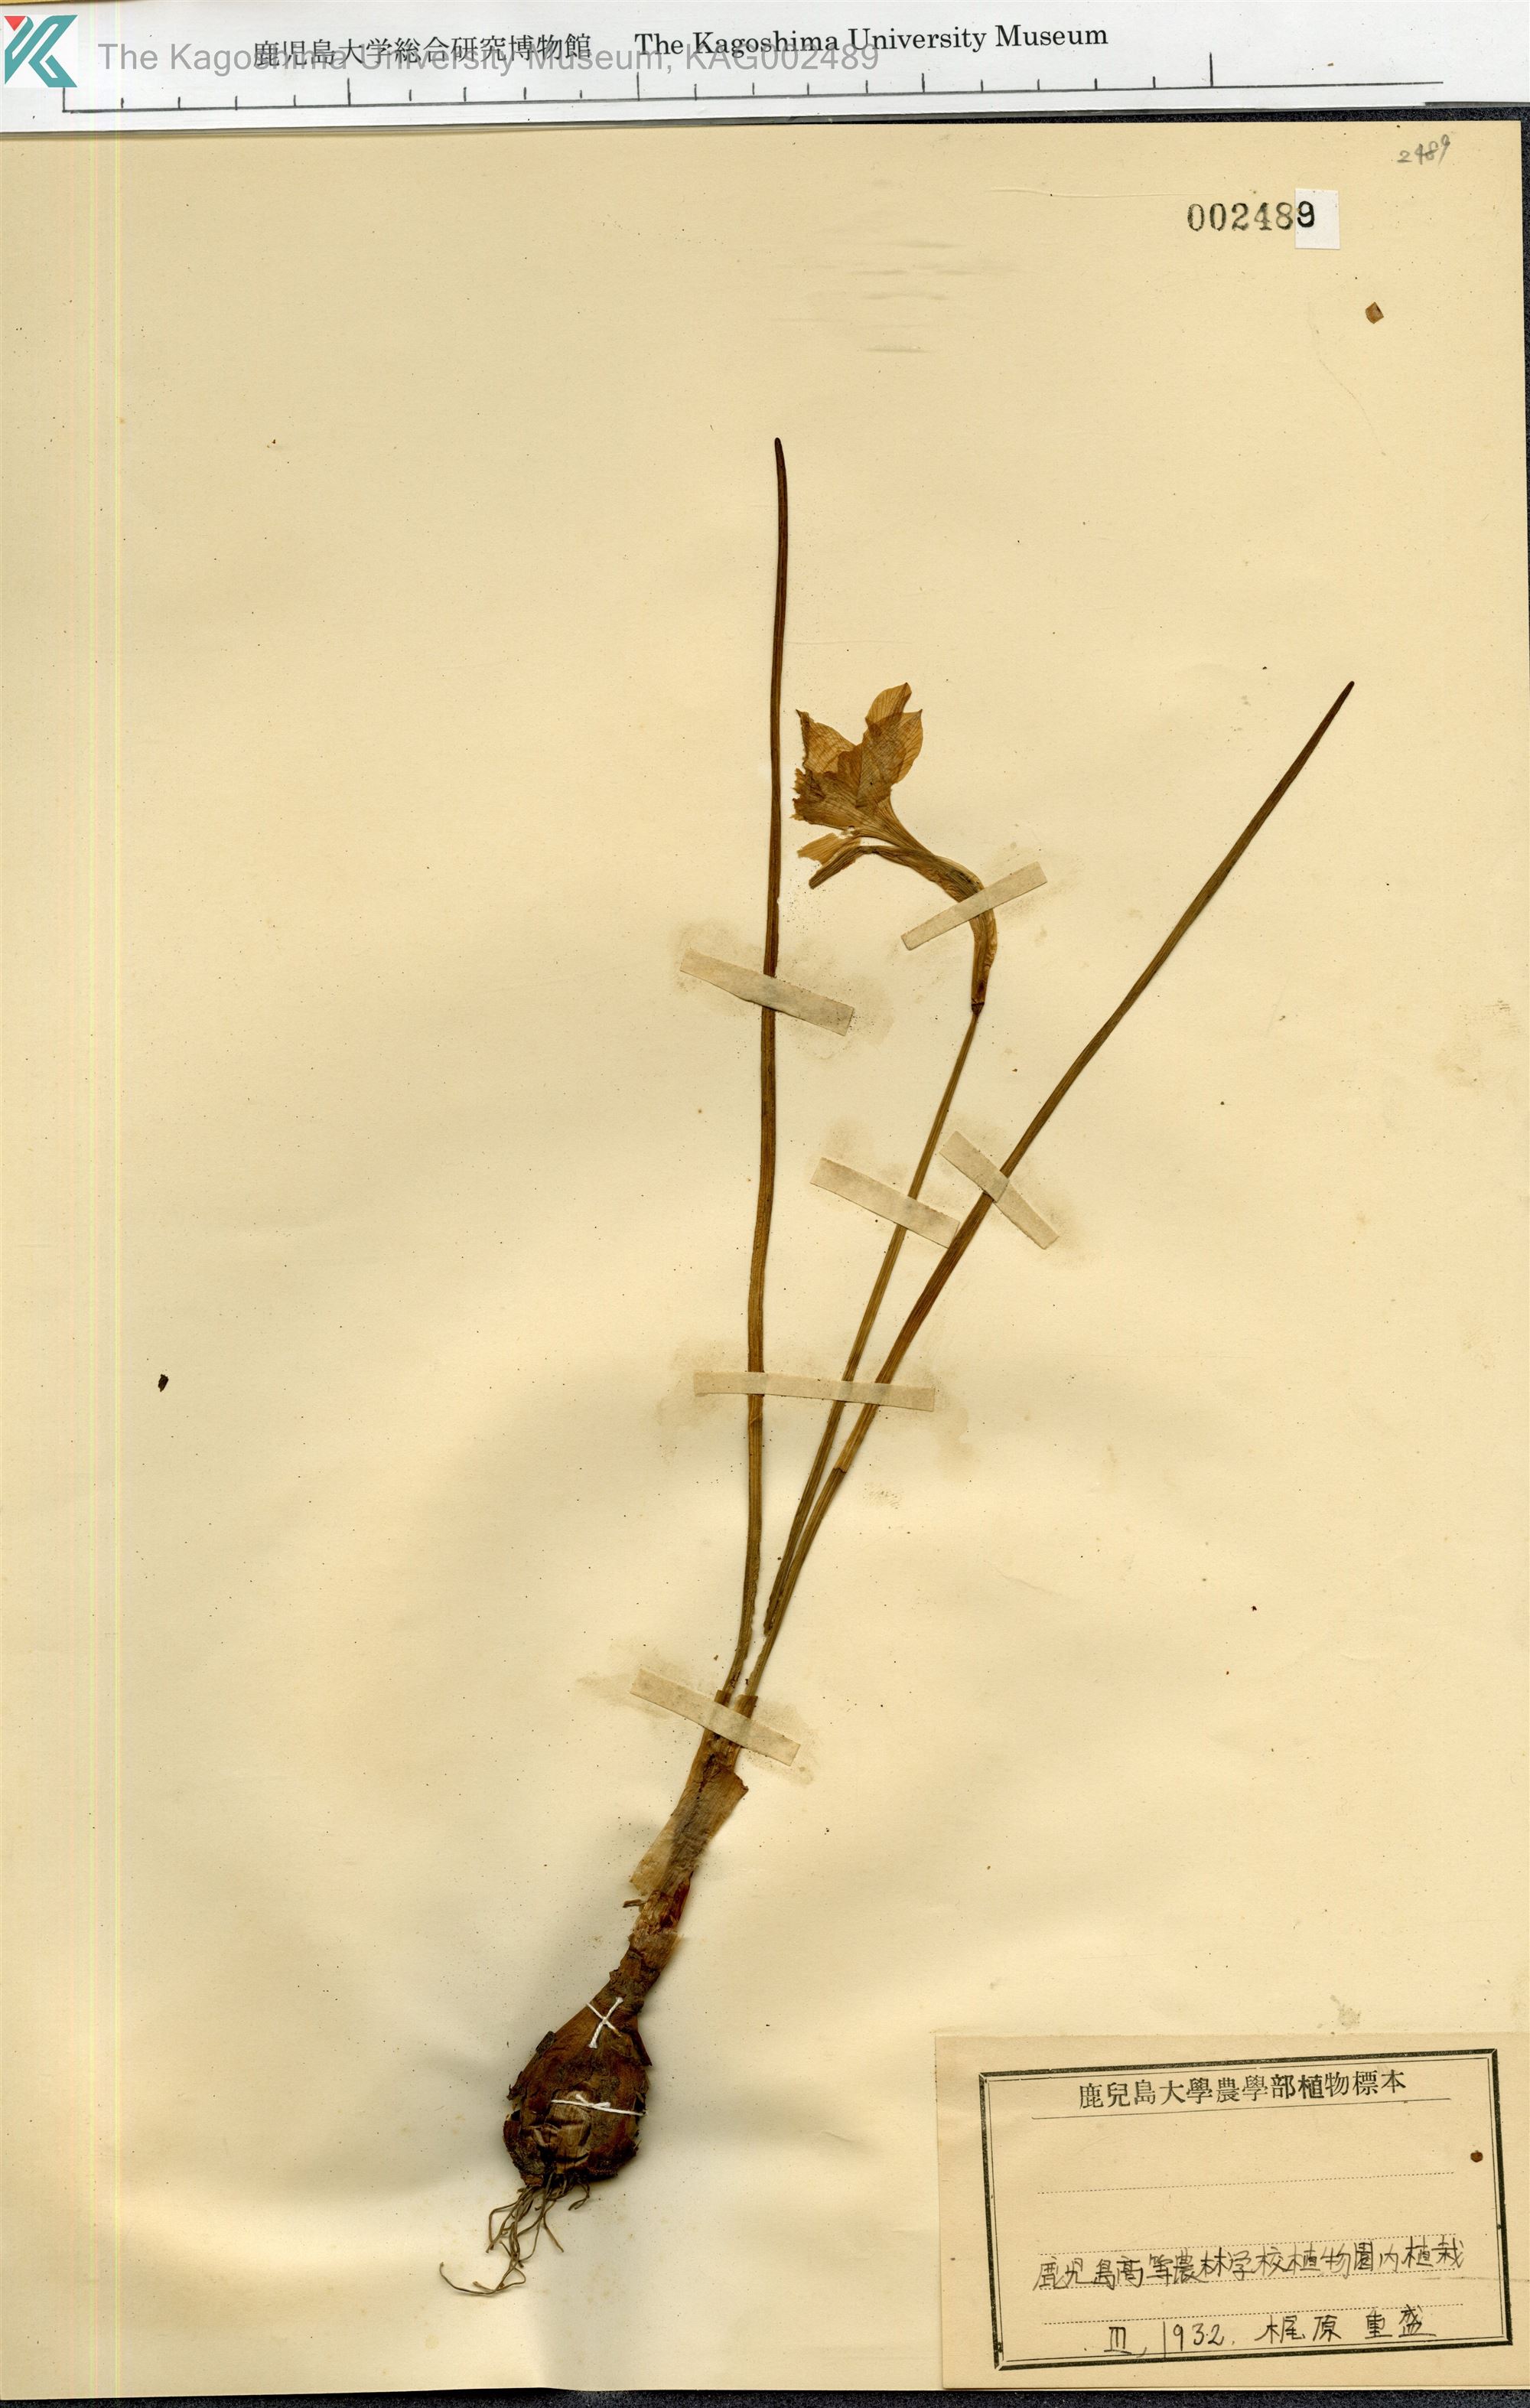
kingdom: Plantae
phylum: Tracheophyta
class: Liliopsida
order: Asparagales
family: Amaryllidaceae
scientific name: Amaryllidaceae
